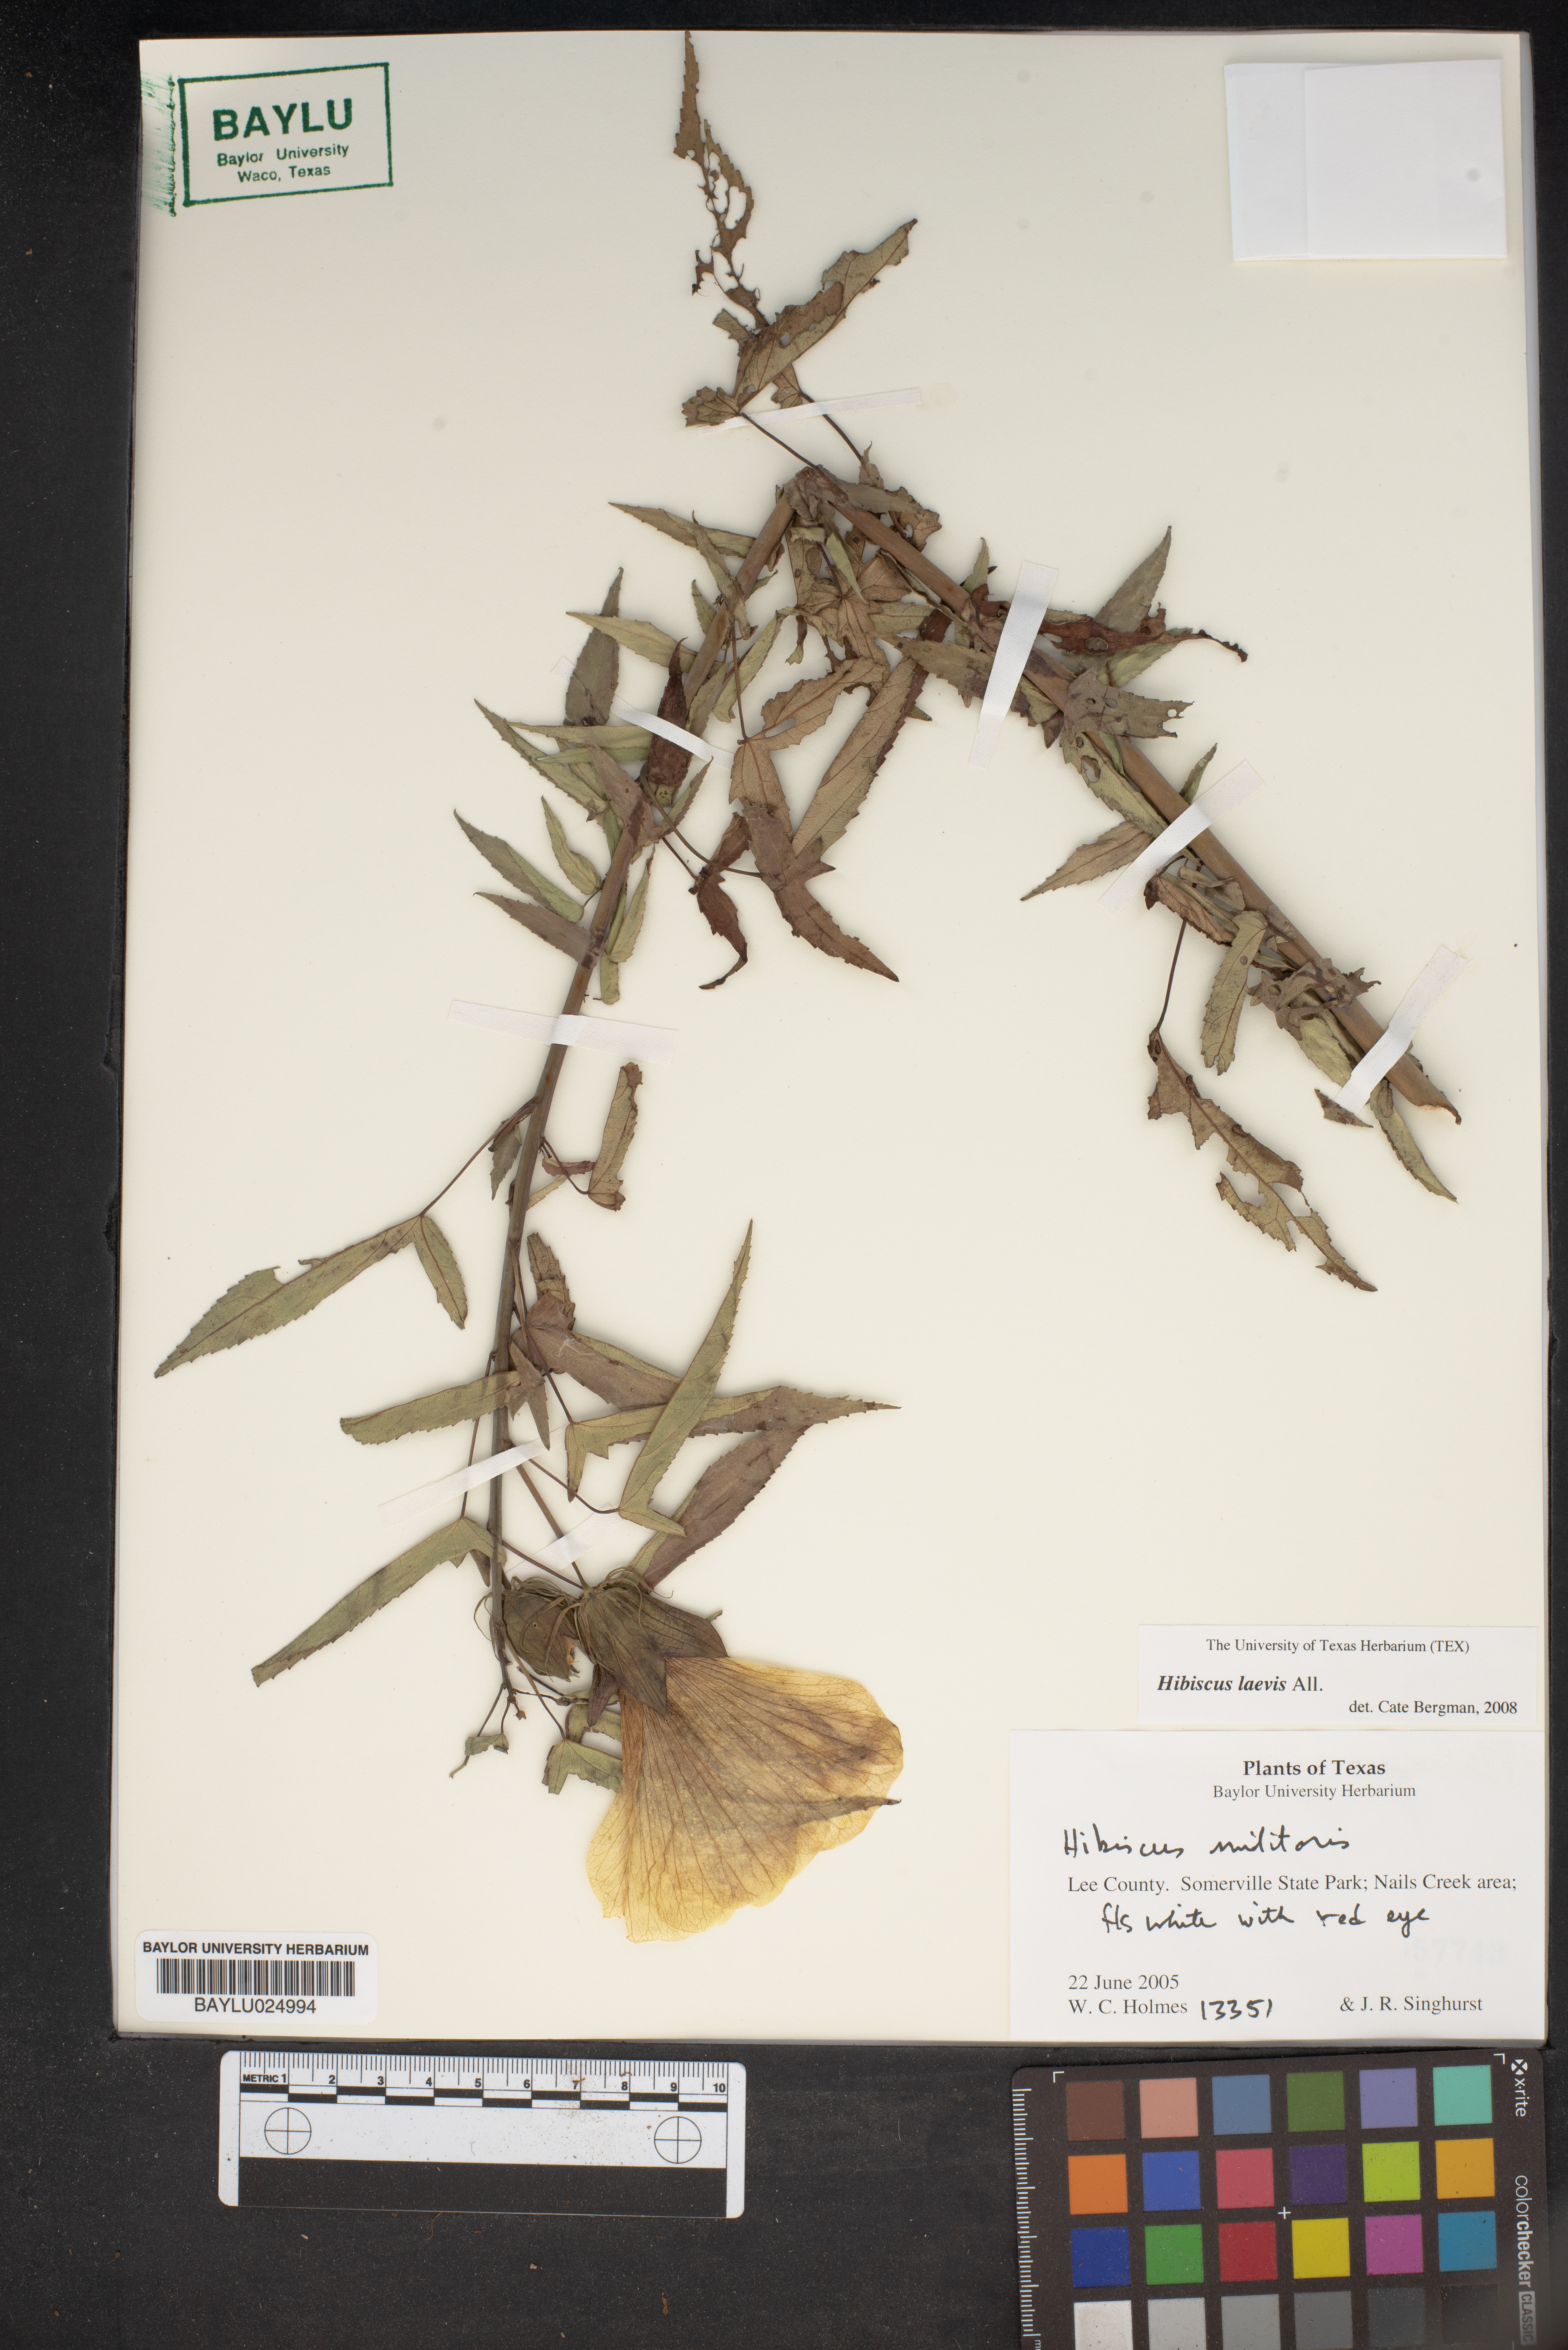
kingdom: Plantae
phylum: Tracheophyta
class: Magnoliopsida
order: Malvales
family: Malvaceae
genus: Hibiscus
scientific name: Hibiscus laevis
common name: Scarlet rose-mallow
